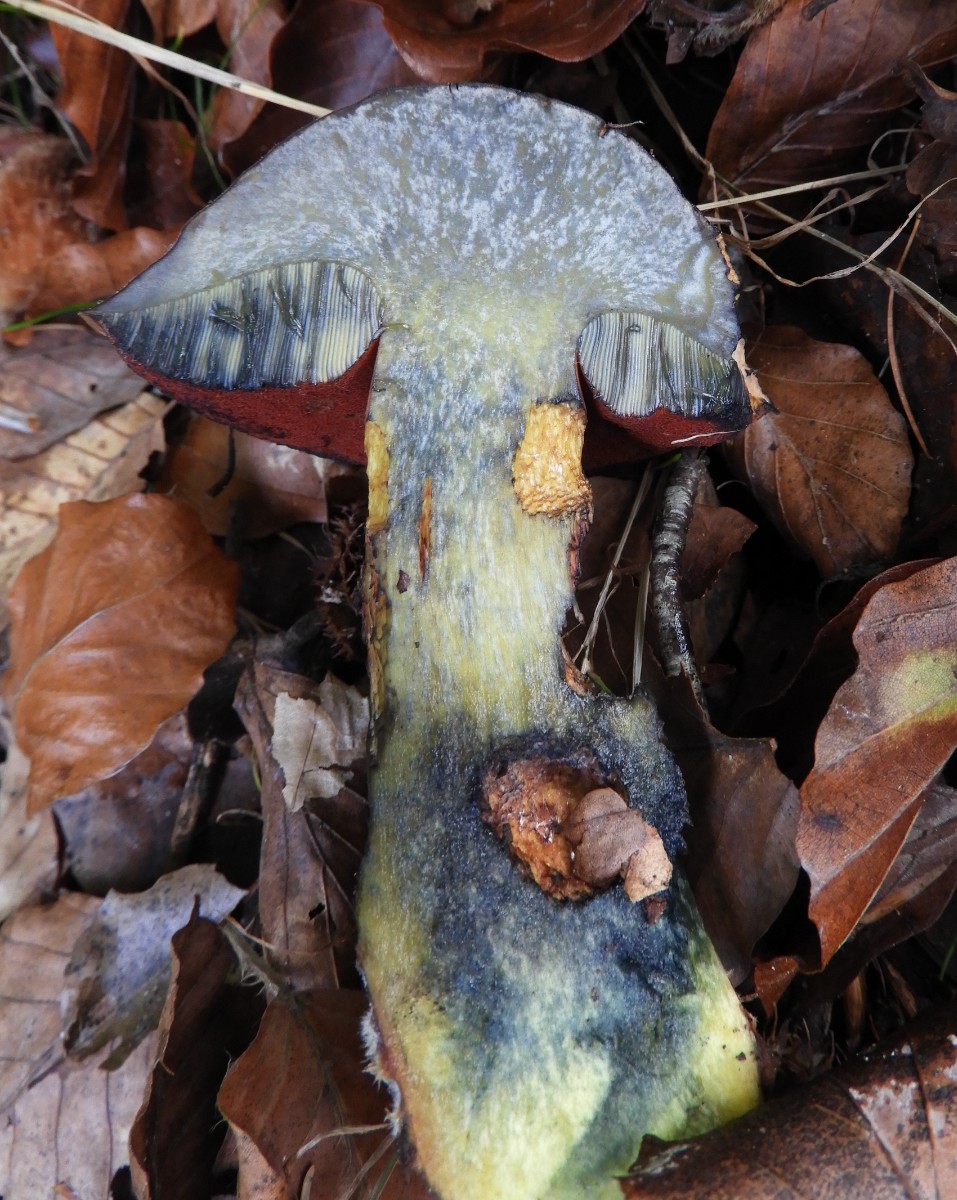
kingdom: Fungi
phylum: Basidiomycota
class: Agaricomycetes
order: Boletales
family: Boletaceae
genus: Neoboletus
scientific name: Neoboletus erythropus
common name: punktstokket indigorørhat
